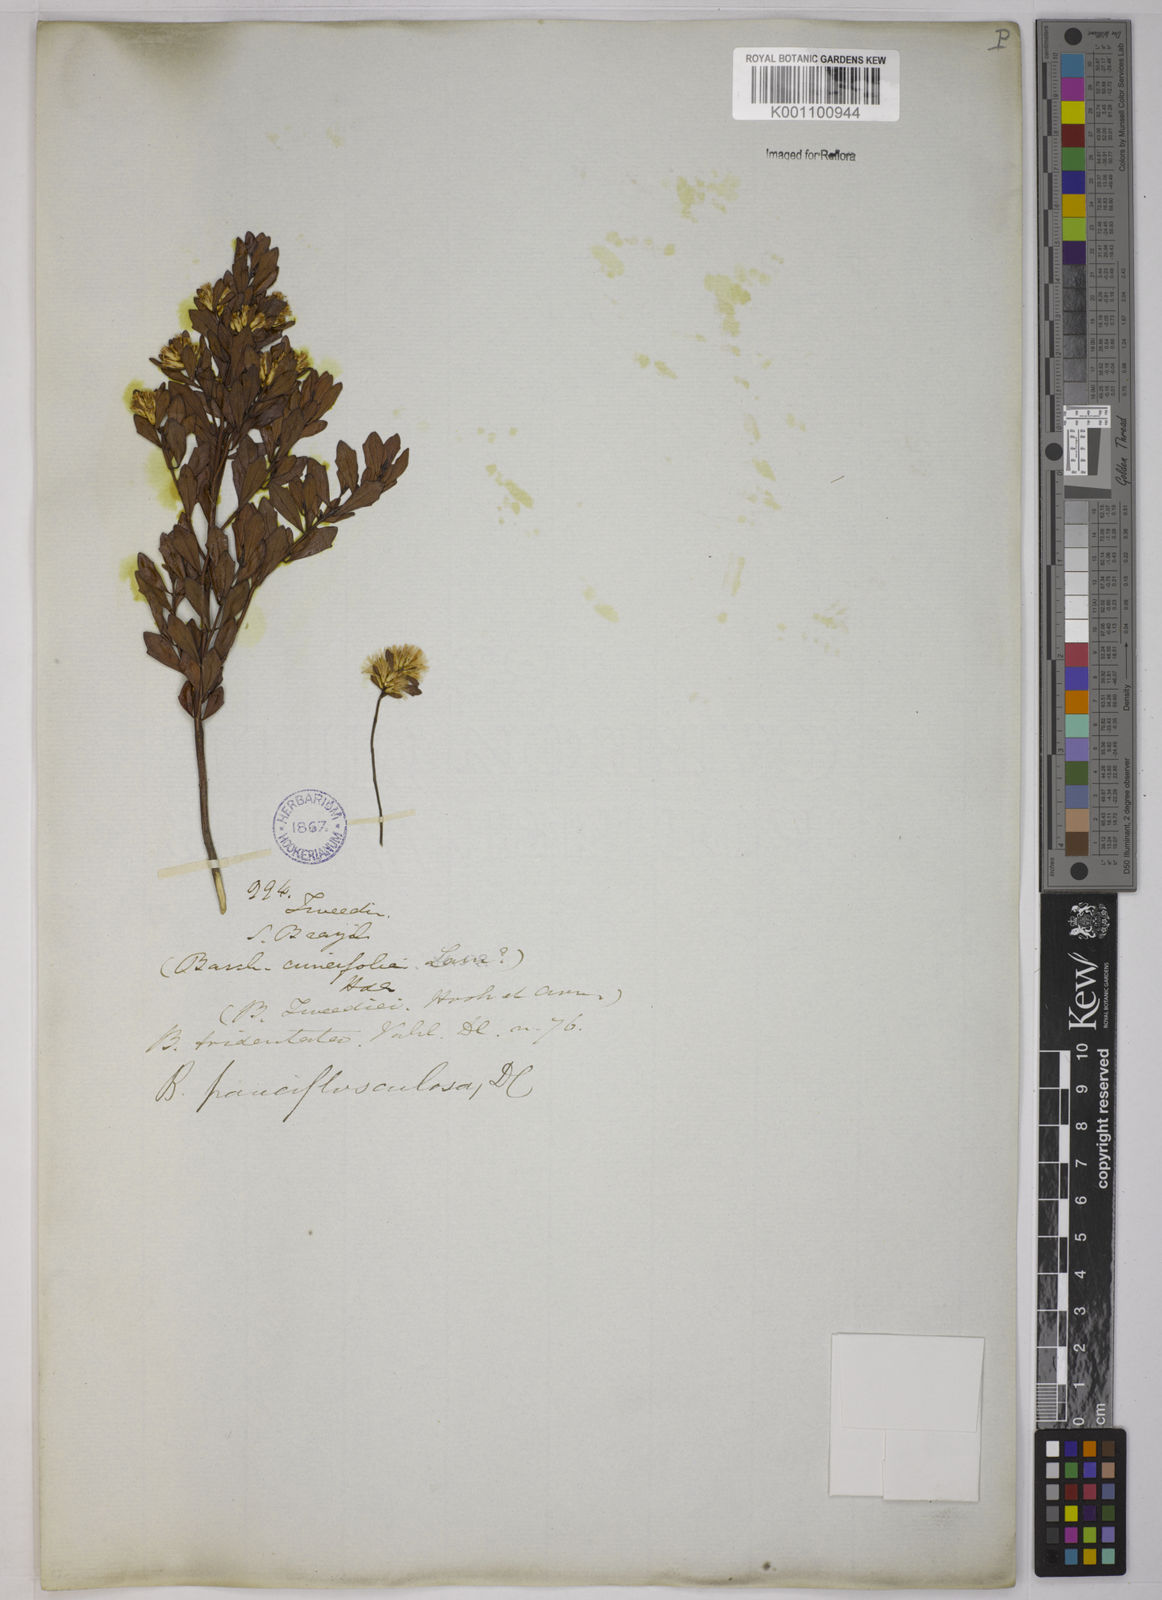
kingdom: Plantae
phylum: Tracheophyta
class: Magnoliopsida
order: Asterales
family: Asteraceae
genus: Baccharis
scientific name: Baccharis pauciflosculosa
